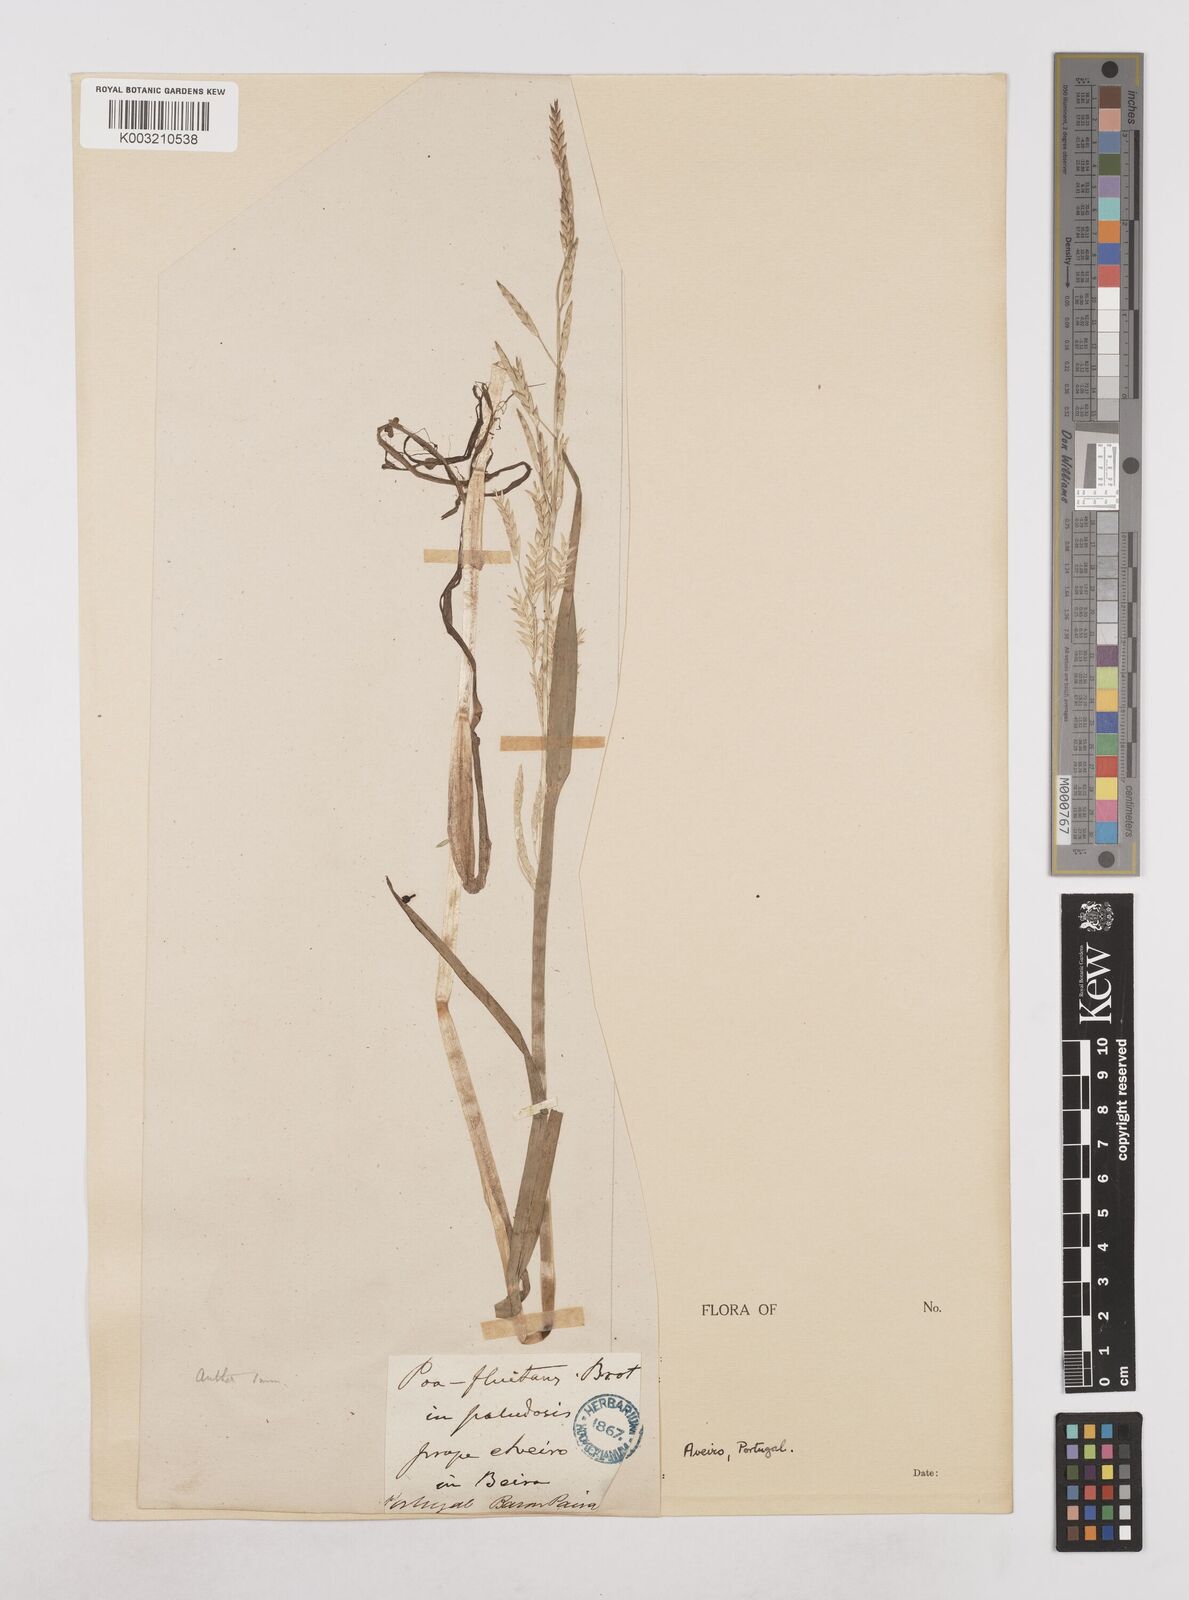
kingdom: Plantae
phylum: Tracheophyta
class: Liliopsida
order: Poales
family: Poaceae
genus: Glyceria
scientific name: Glyceria declinata
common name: Small sweet-grass
